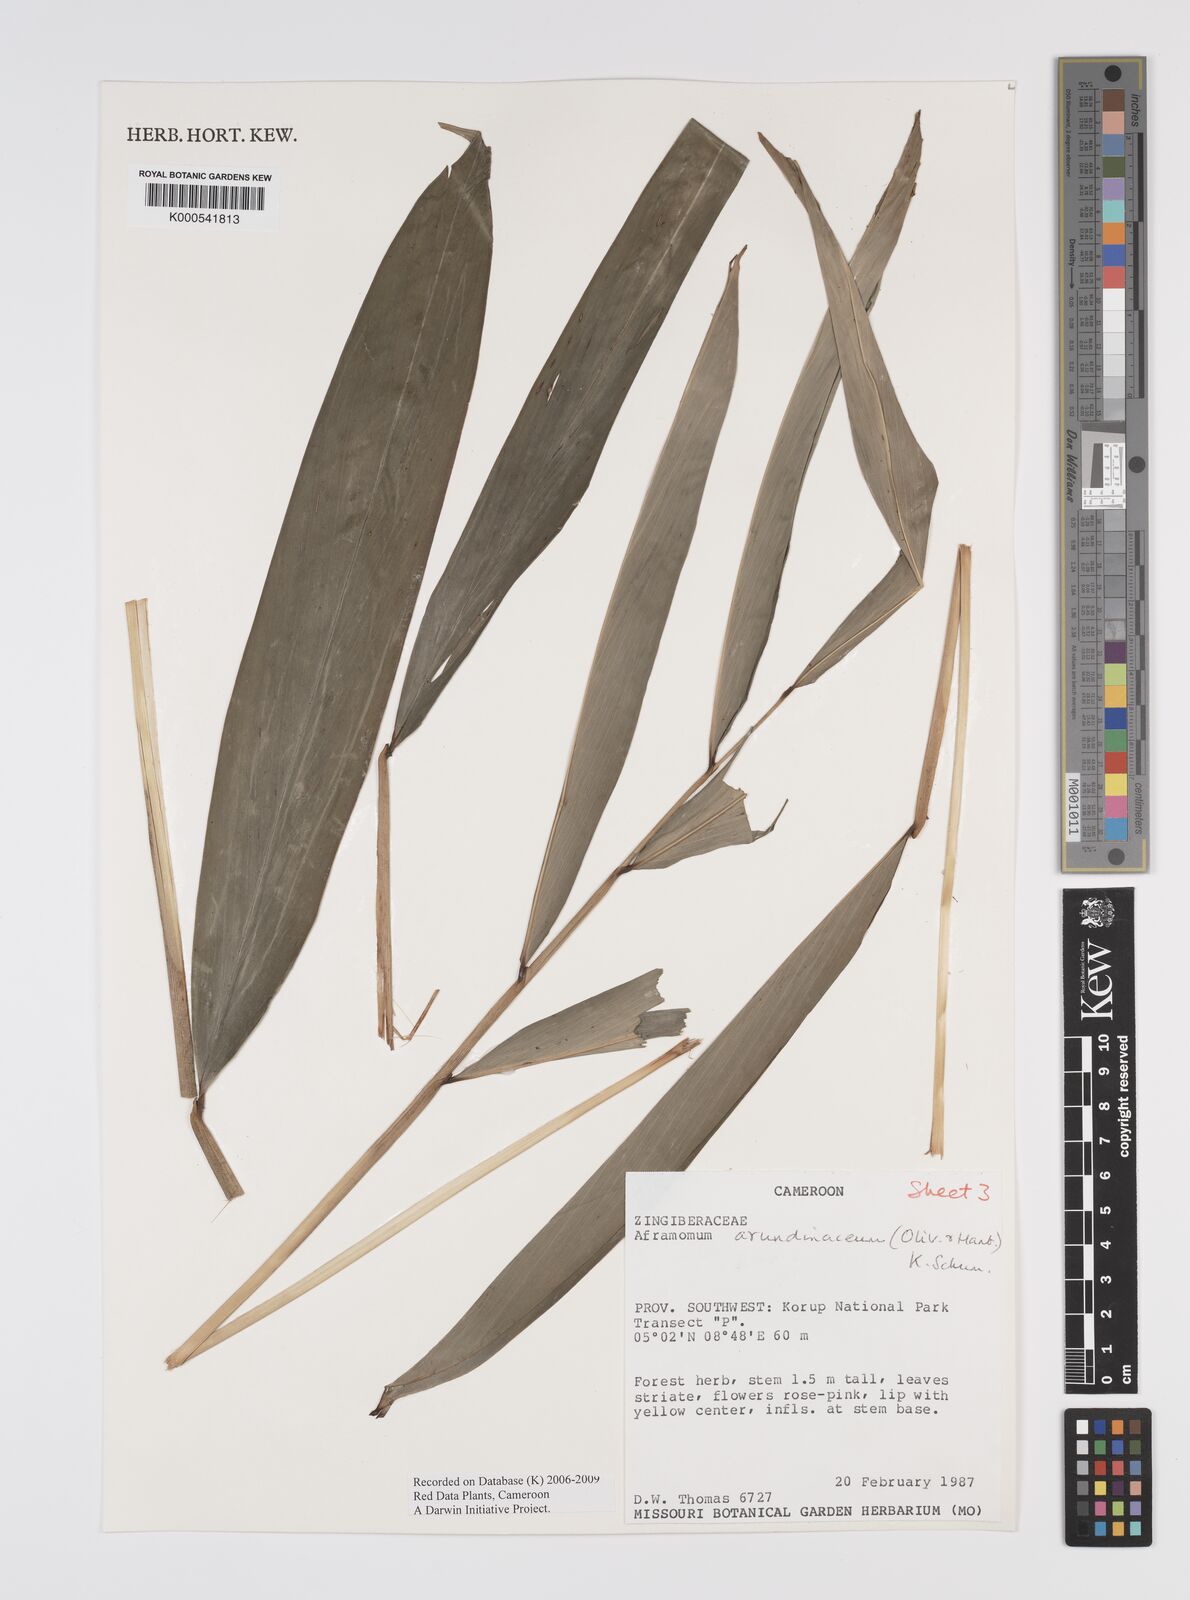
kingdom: Plantae
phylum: Tracheophyta
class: Liliopsida
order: Zingiberales
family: Zingiberaceae
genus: Aframomum
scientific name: Aframomum arundinaceum
